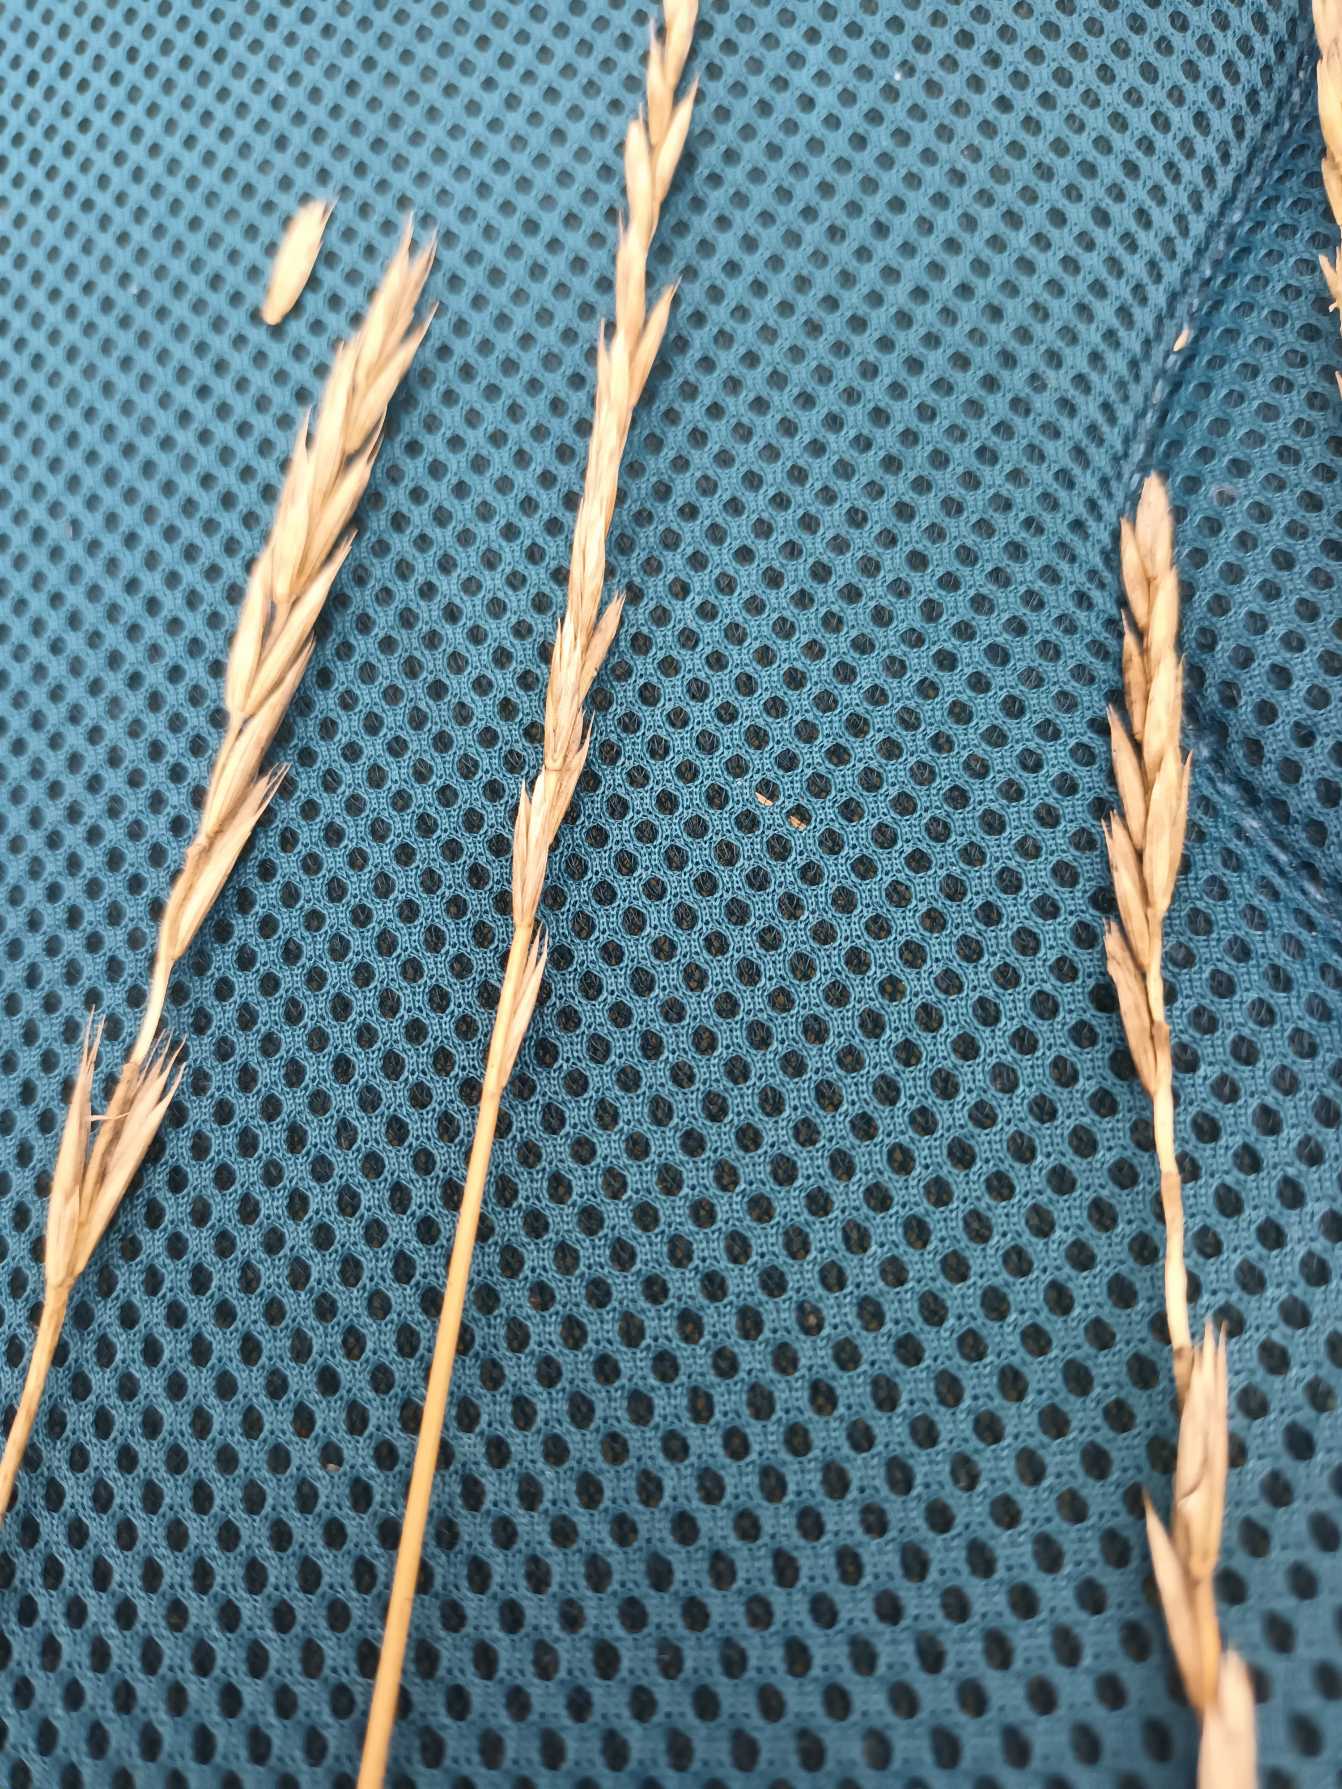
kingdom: Plantae
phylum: Tracheophyta
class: Liliopsida
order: Poales
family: Poaceae
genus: Elymus
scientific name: Elymus repens
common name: Almindelig kvik
